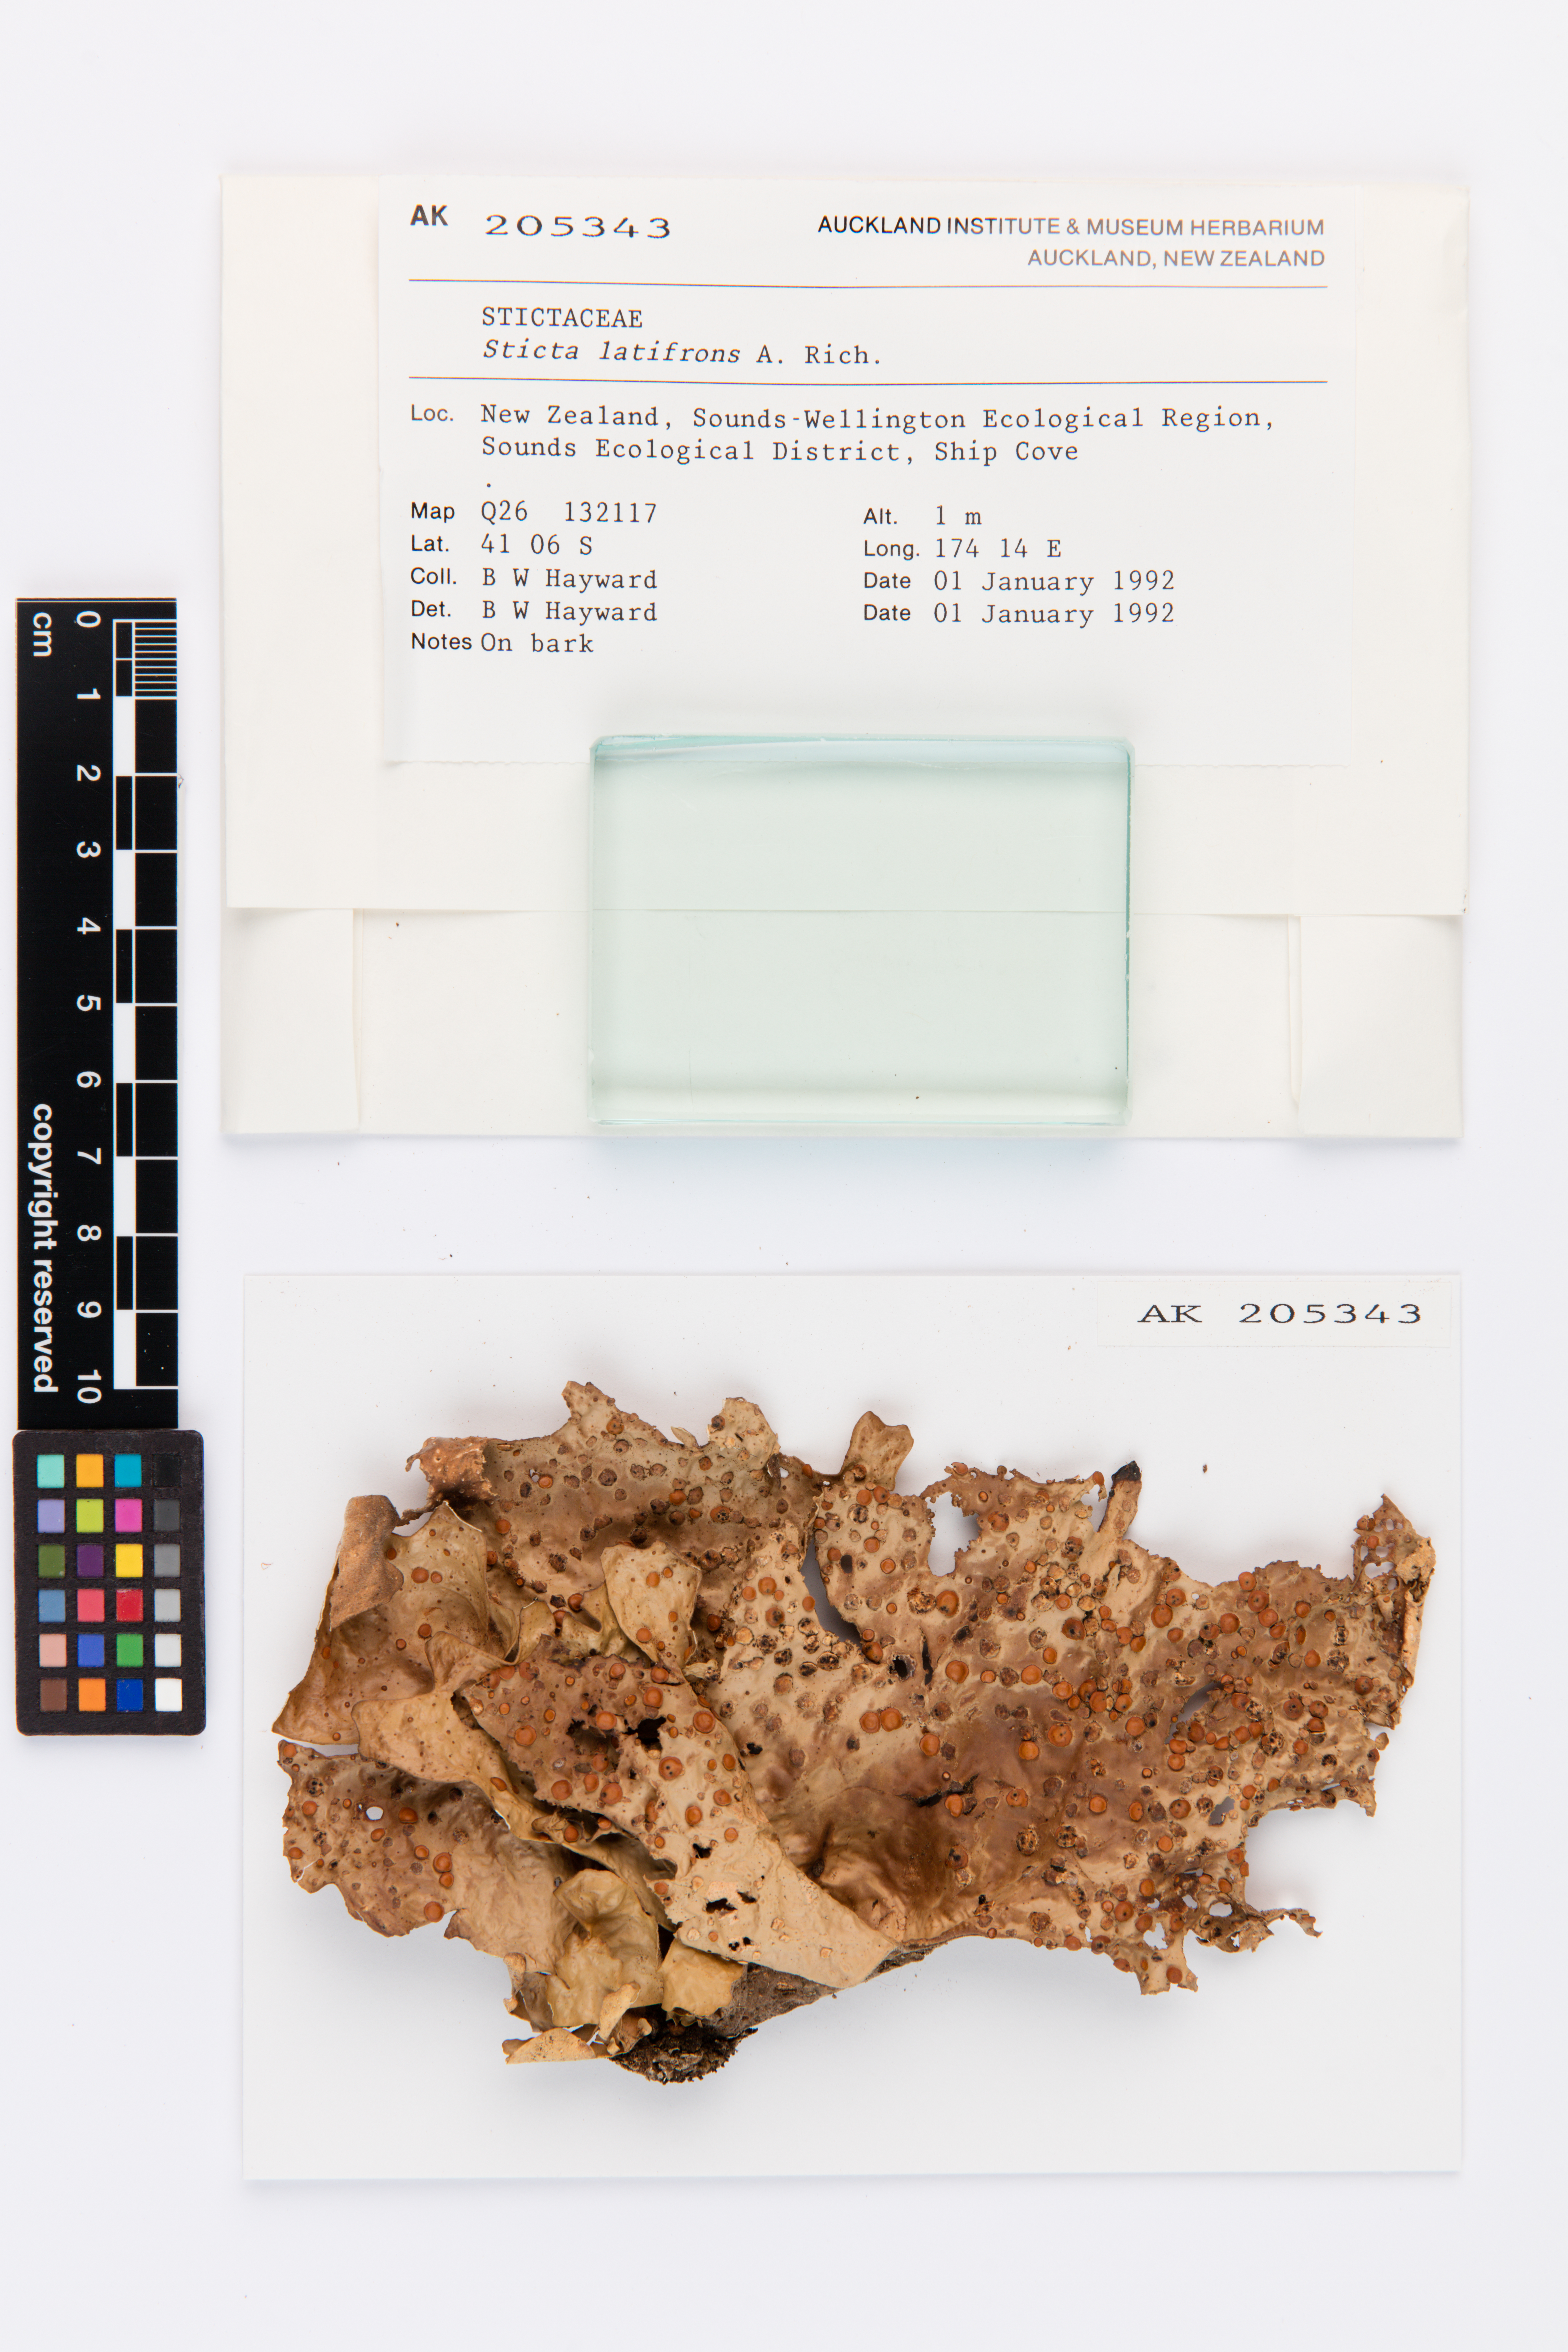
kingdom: Fungi
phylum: Ascomycota
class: Lecanoromycetes
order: Peltigerales
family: Lobariaceae
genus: Sticta
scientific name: Sticta latifrons
